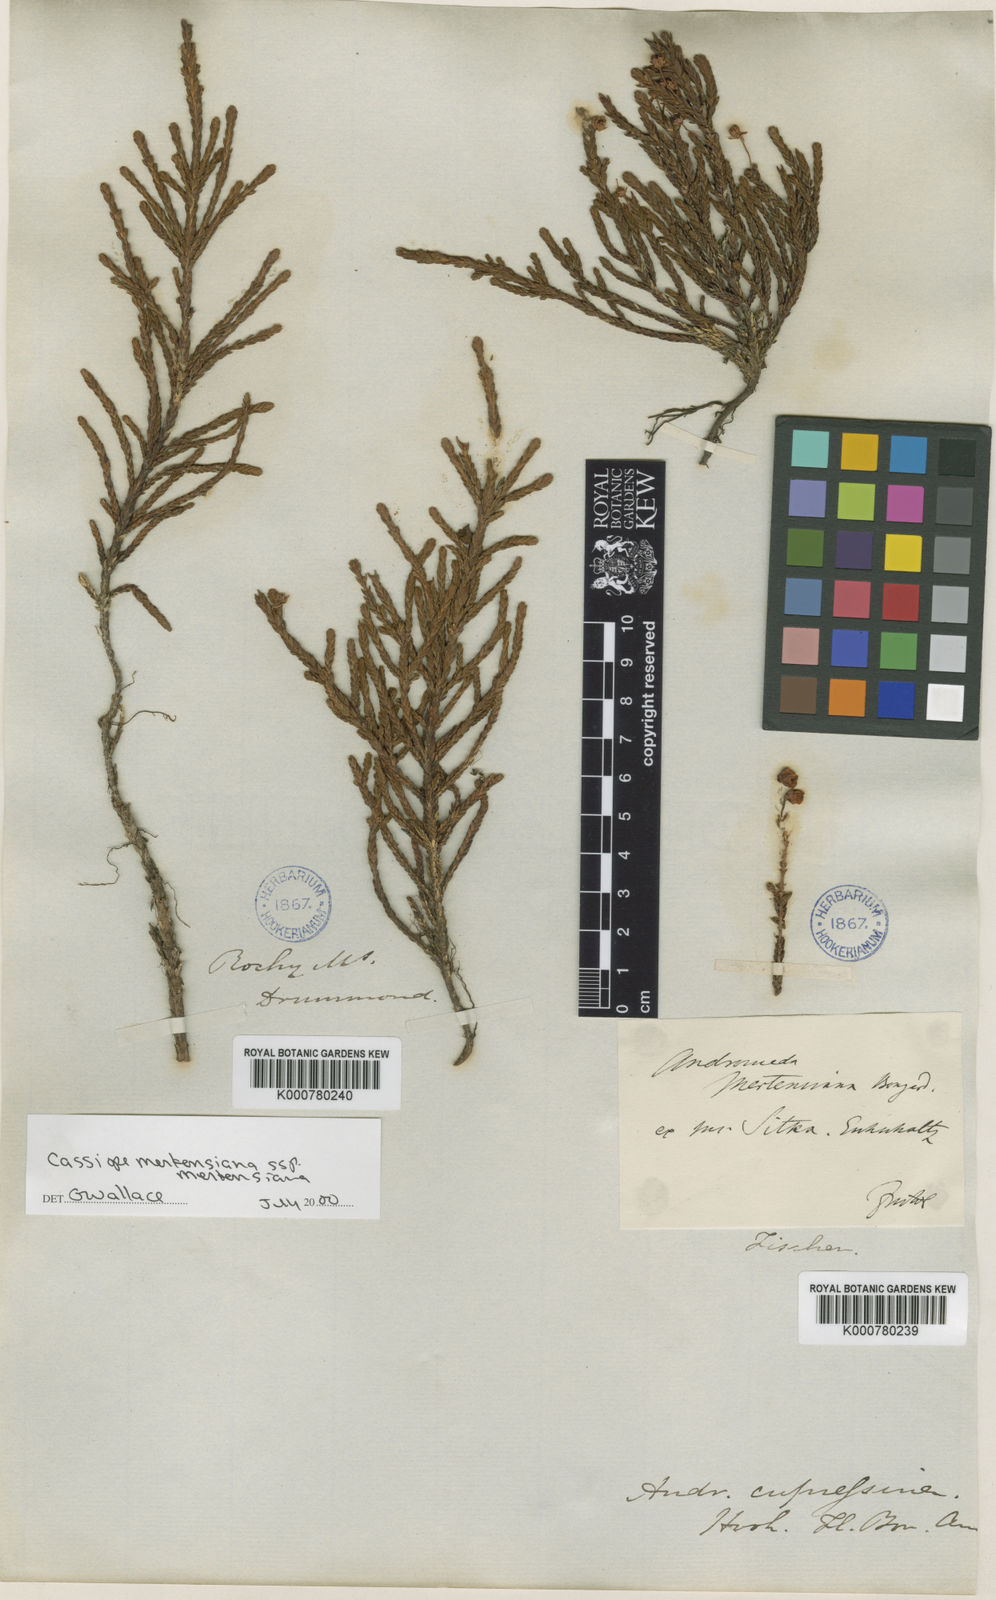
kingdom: Plantae
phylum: Tracheophyta
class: Magnoliopsida
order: Ericales
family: Ericaceae
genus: Cassiope
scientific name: Cassiope mertensiana
